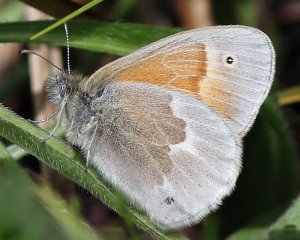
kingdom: Animalia
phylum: Arthropoda
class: Insecta
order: Lepidoptera
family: Nymphalidae
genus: Coenonympha
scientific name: Coenonympha tullia
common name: Large Heath
